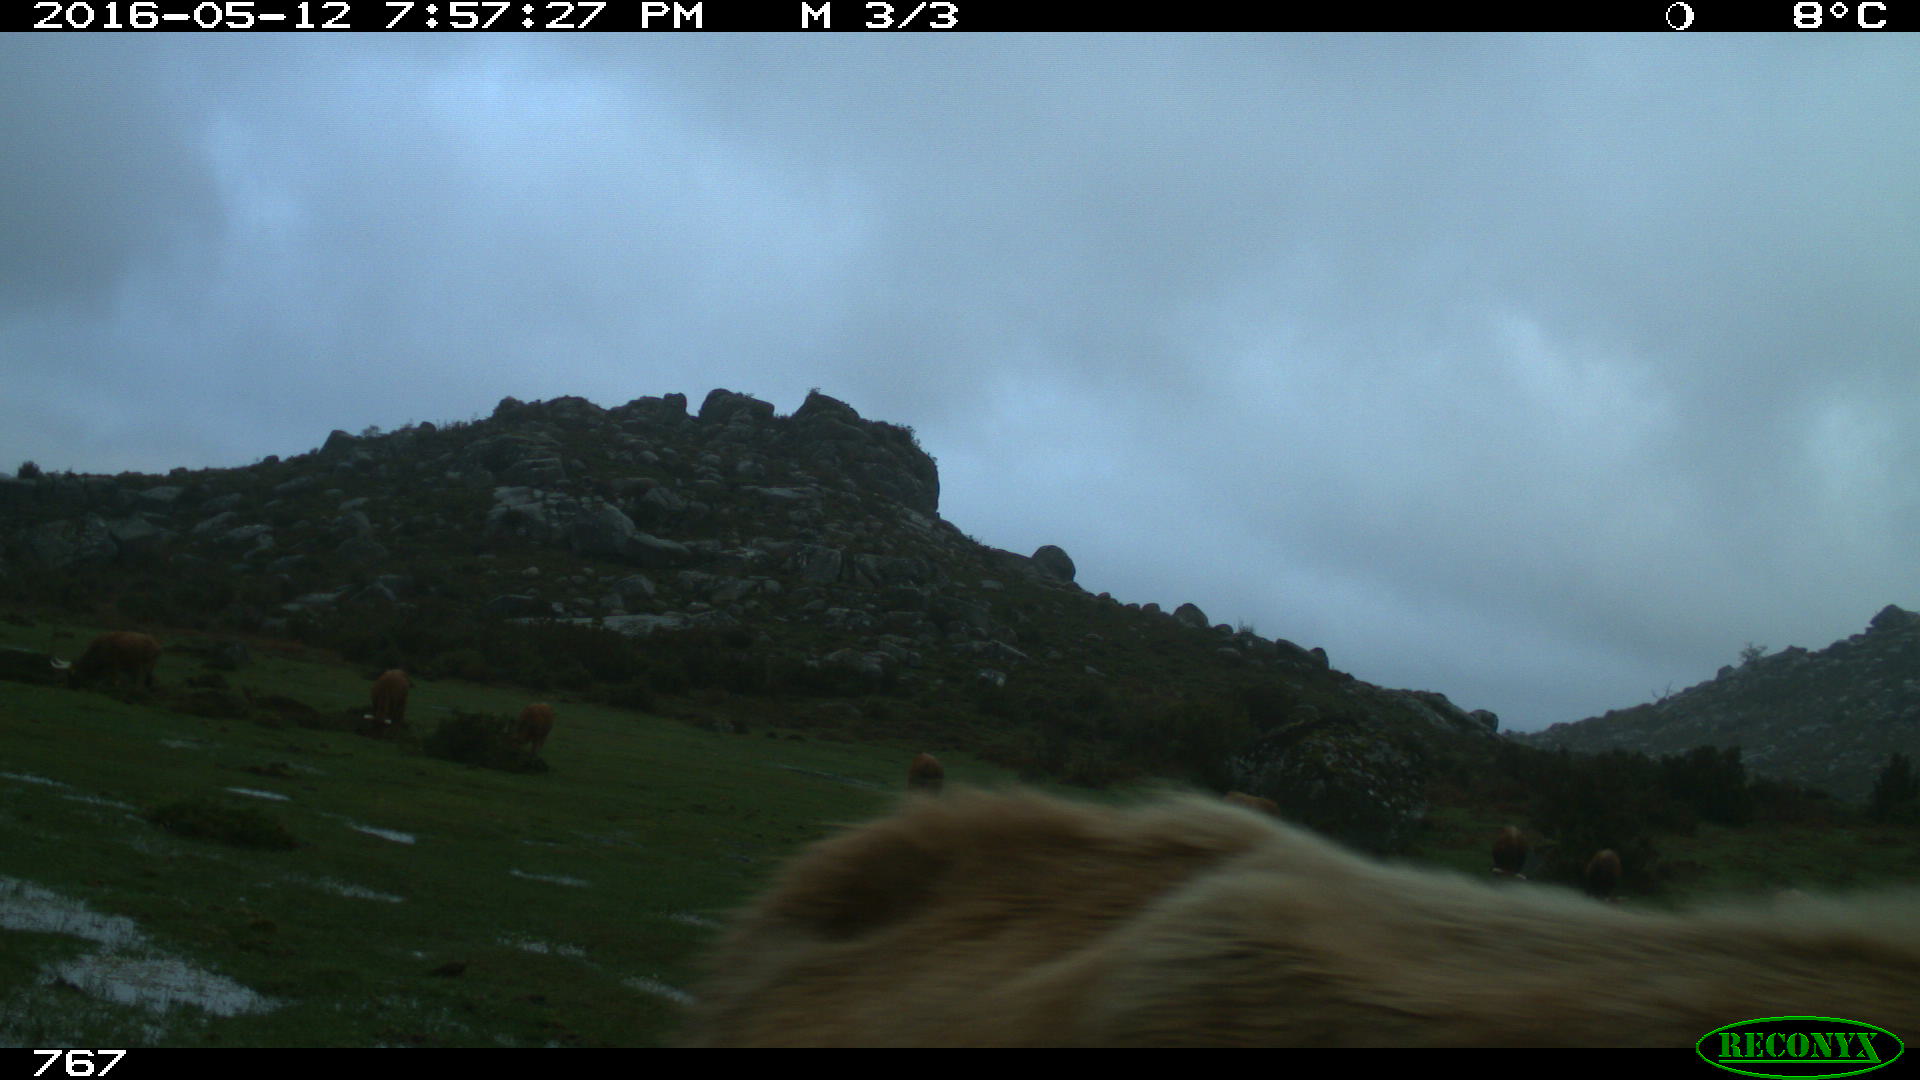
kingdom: Animalia
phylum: Chordata
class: Mammalia
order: Artiodactyla
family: Bovidae
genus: Bos
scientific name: Bos taurus
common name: Domesticated cattle
